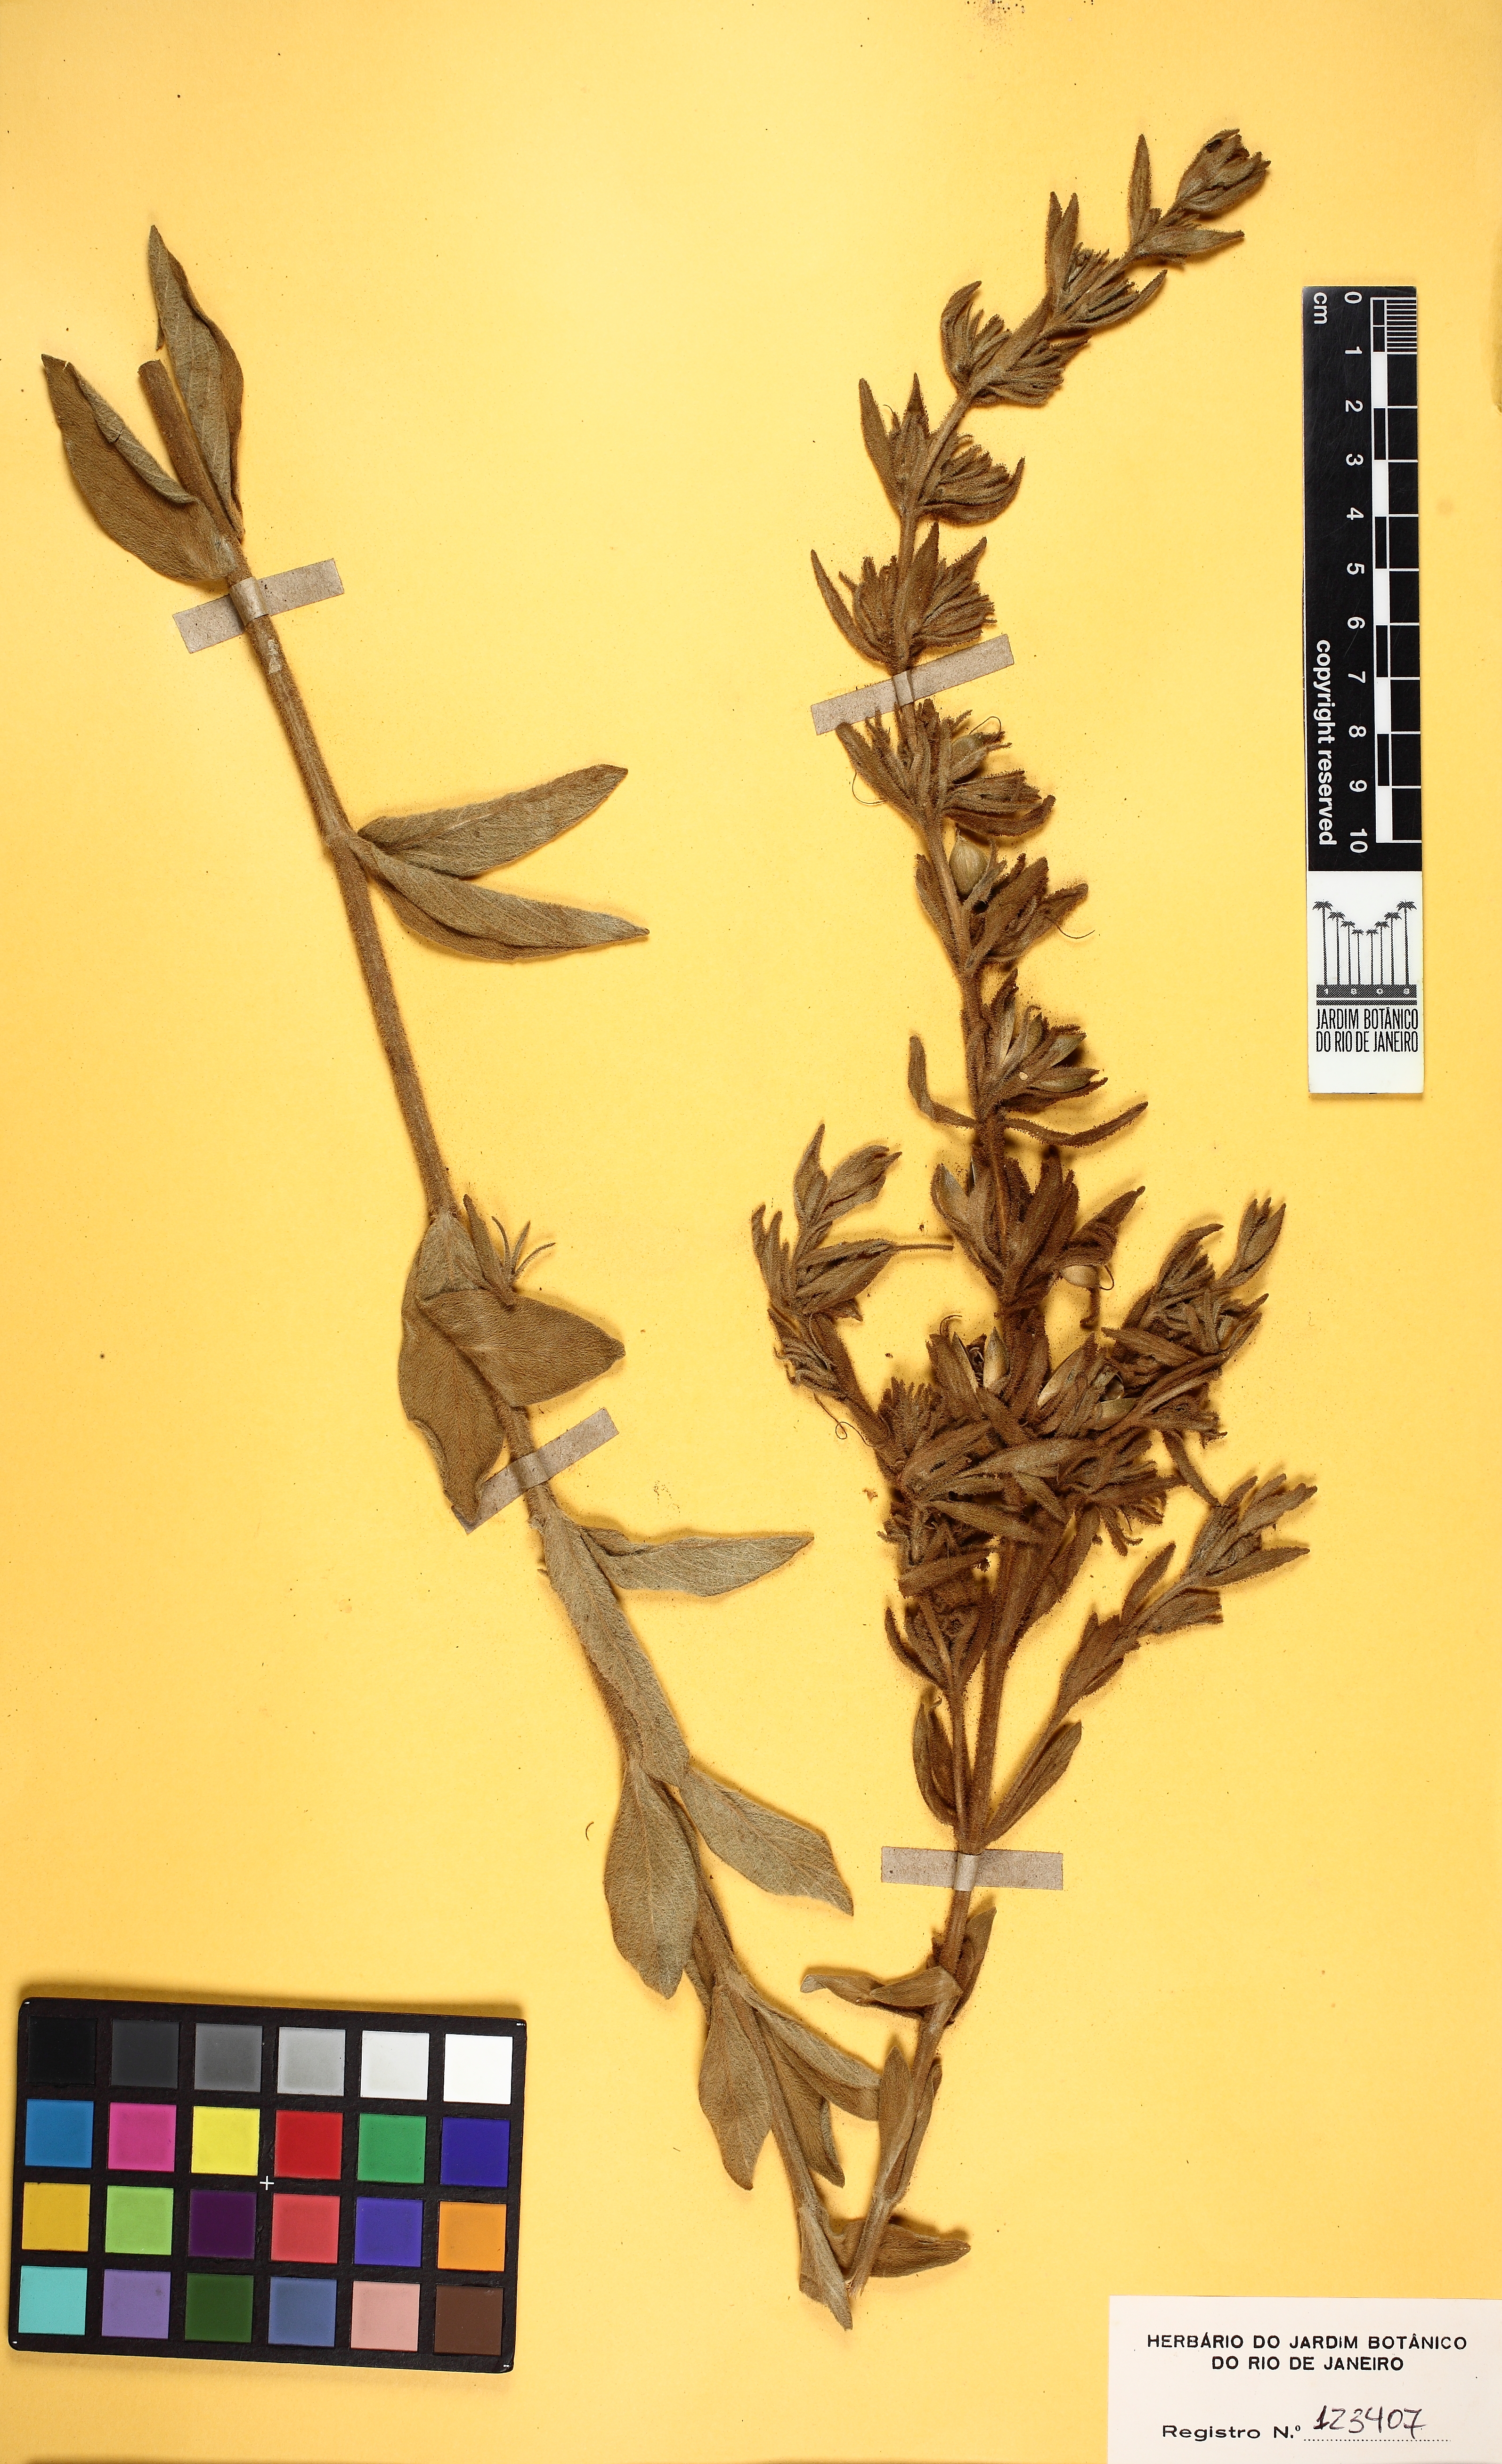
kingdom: Plantae
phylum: Tracheophyta
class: Magnoliopsida
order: Lamiales
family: Acanthaceae
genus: Ruellia
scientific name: Ruellia
